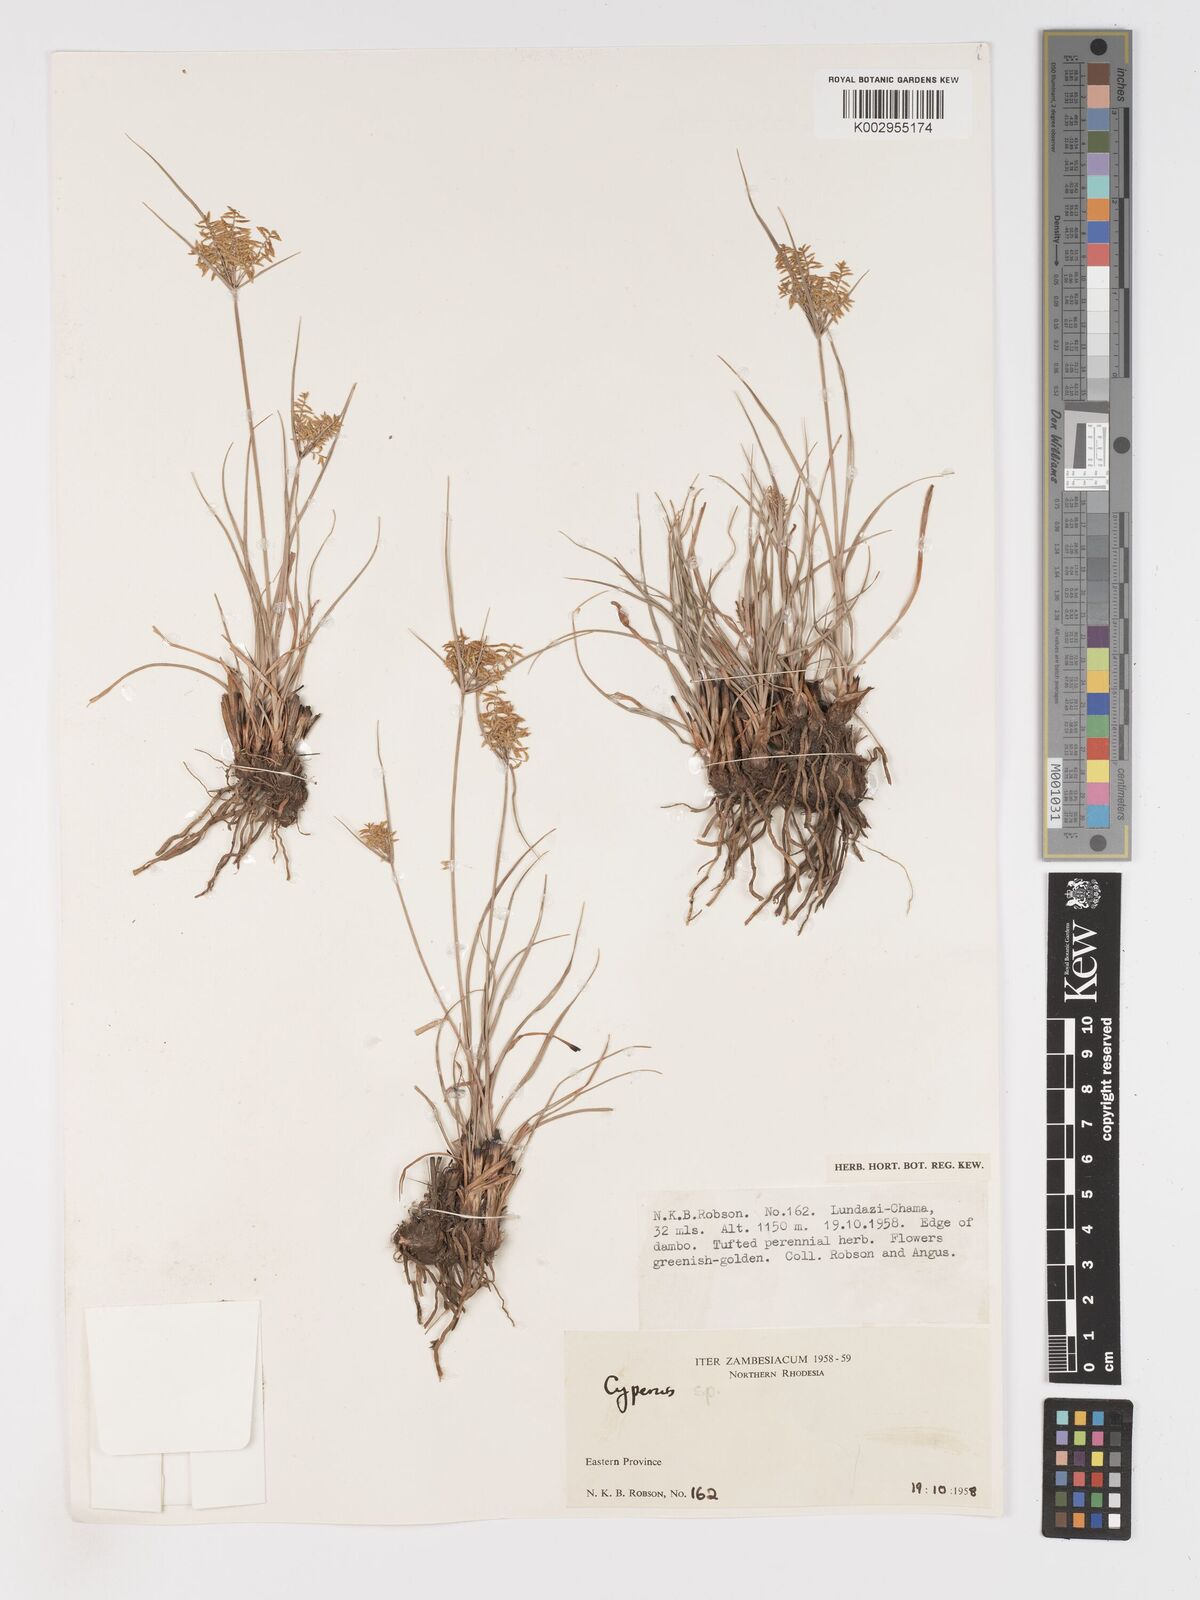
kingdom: Plantae
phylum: Tracheophyta
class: Liliopsida
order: Poales
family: Cyperaceae
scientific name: Cyperaceae
